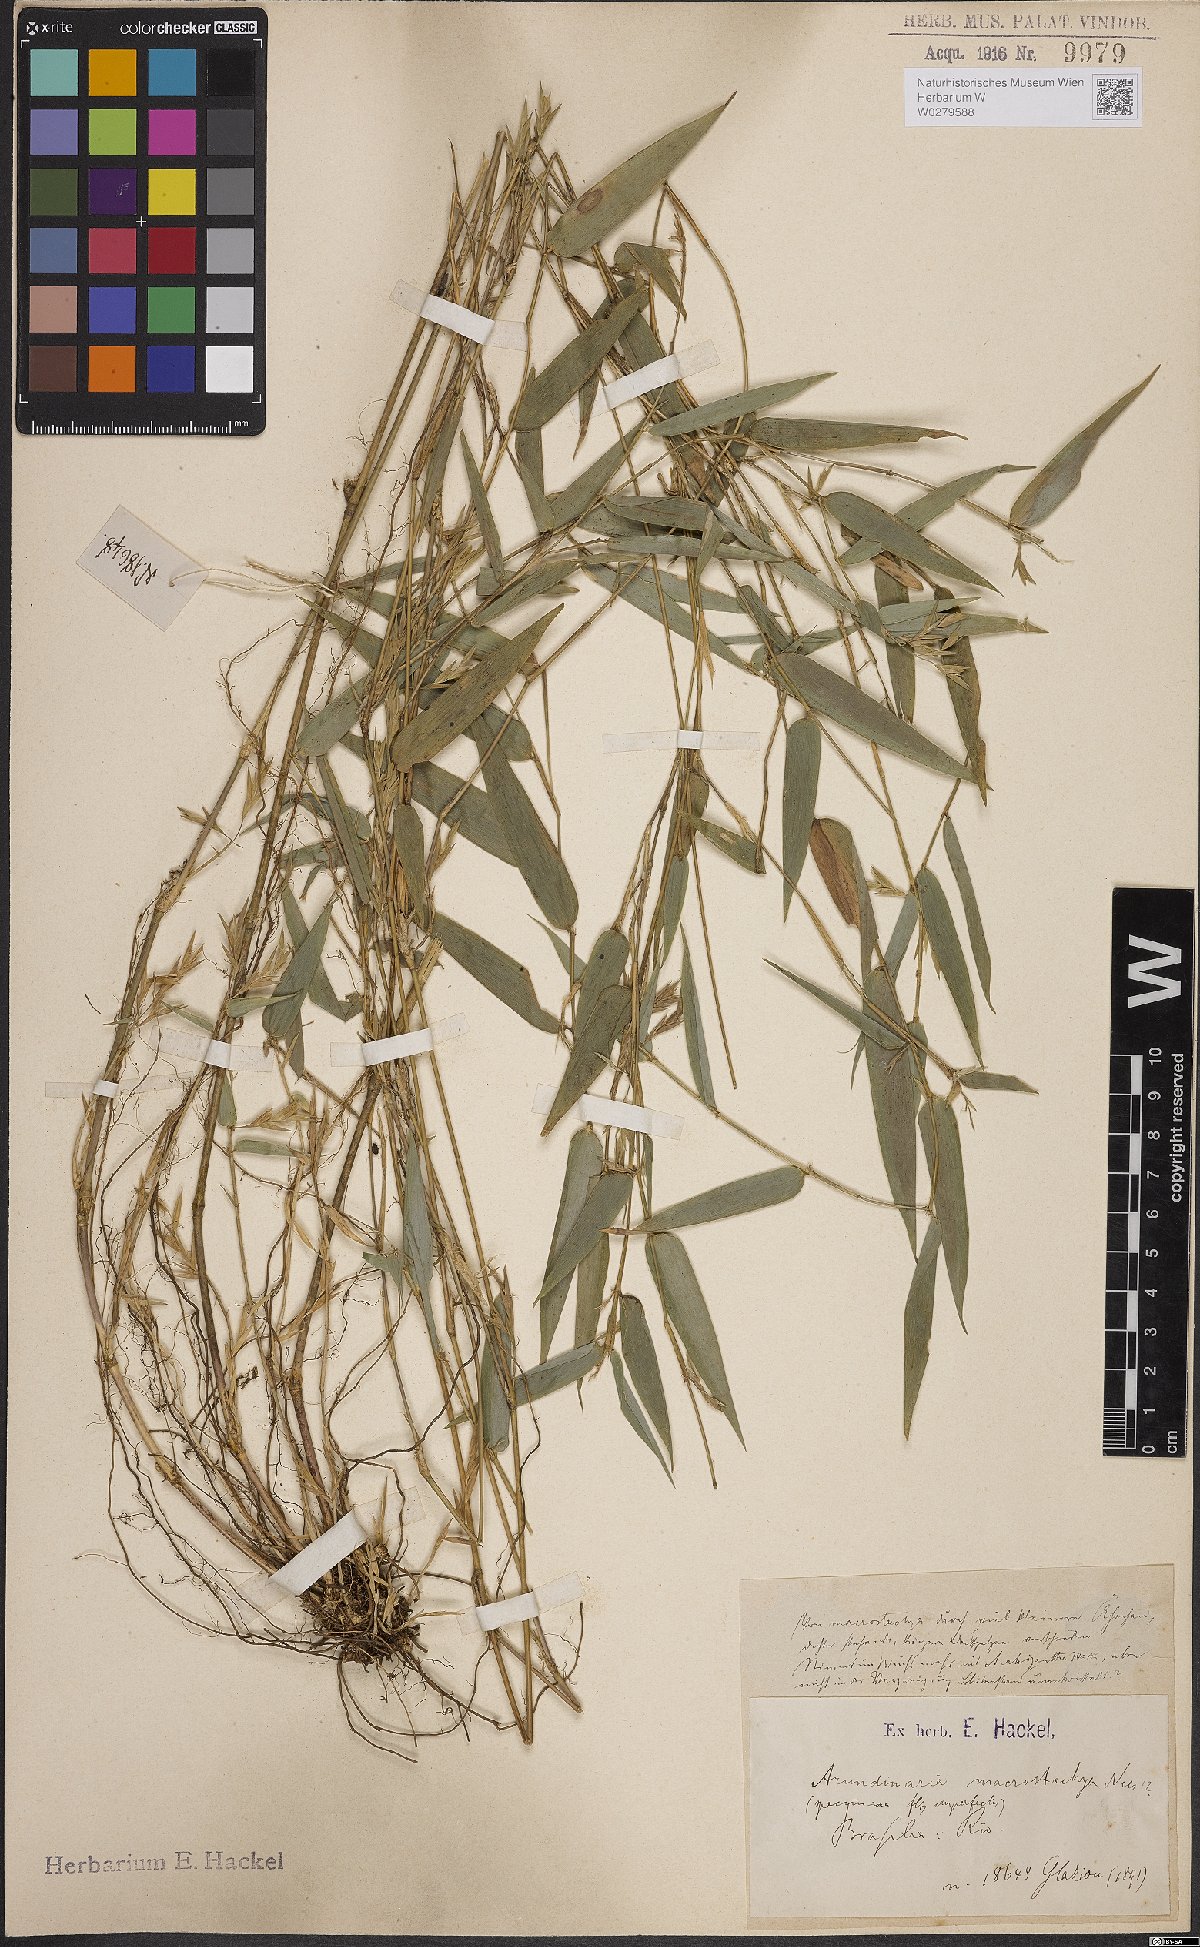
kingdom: Plantae
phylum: Tracheophyta
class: Liliopsida
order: Poales
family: Poaceae
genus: Colanthelia
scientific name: Colanthelia macrostachya
